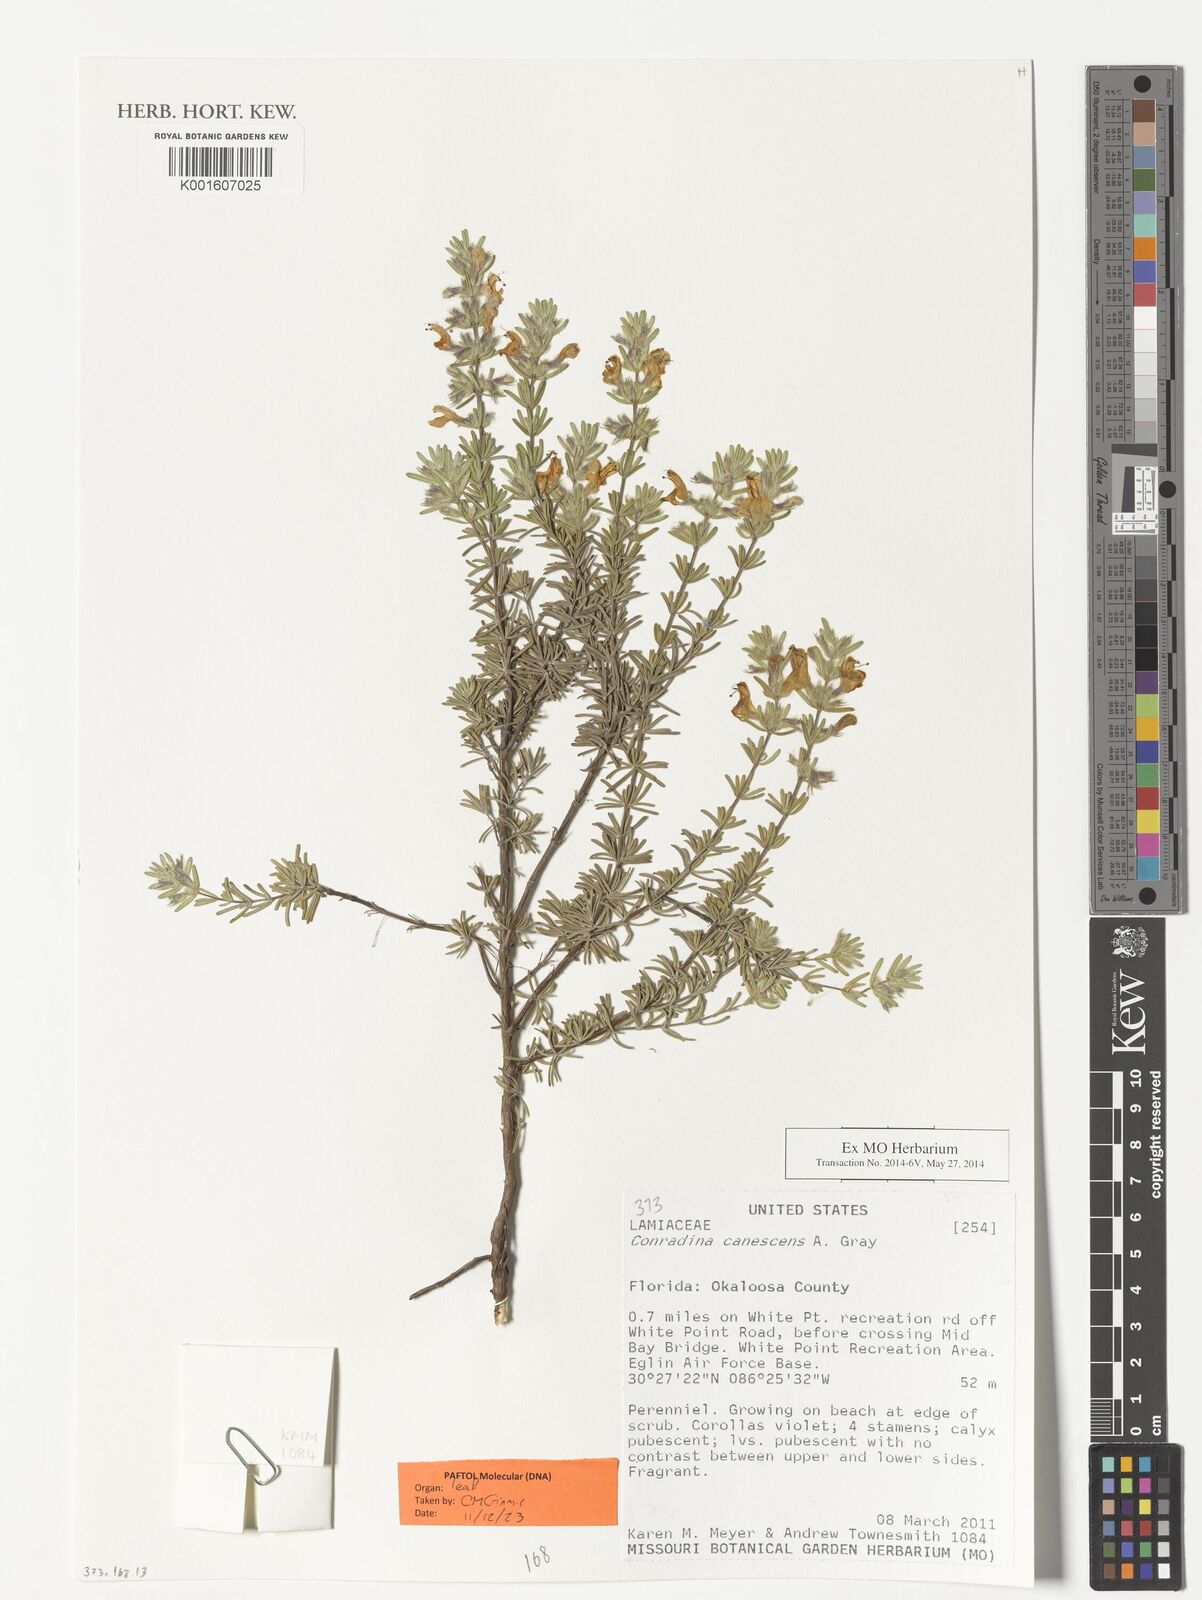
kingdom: Plantae
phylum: Tracheophyta
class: Magnoliopsida
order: Lamiales
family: Lamiaceae
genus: Conradina
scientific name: Conradina canescens
